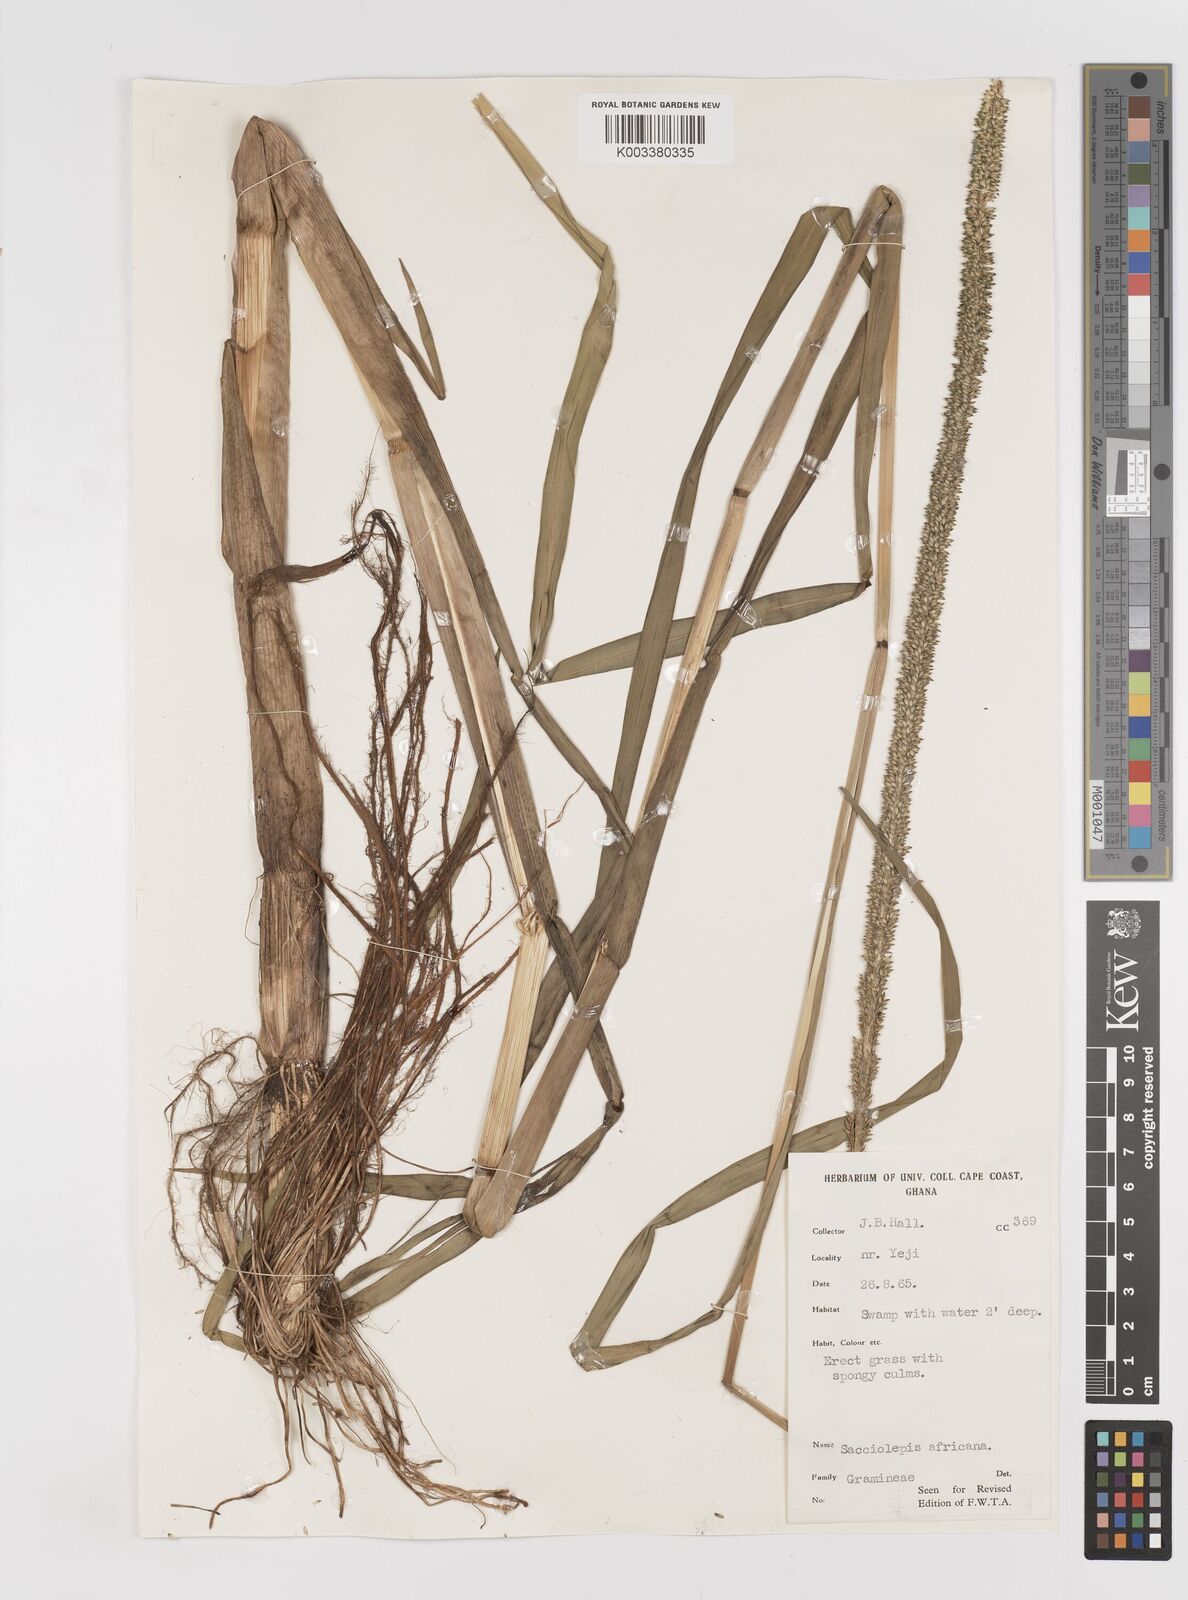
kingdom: Plantae
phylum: Tracheophyta
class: Liliopsida
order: Poales
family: Poaceae
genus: Sacciolepis
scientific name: Sacciolepis africana
